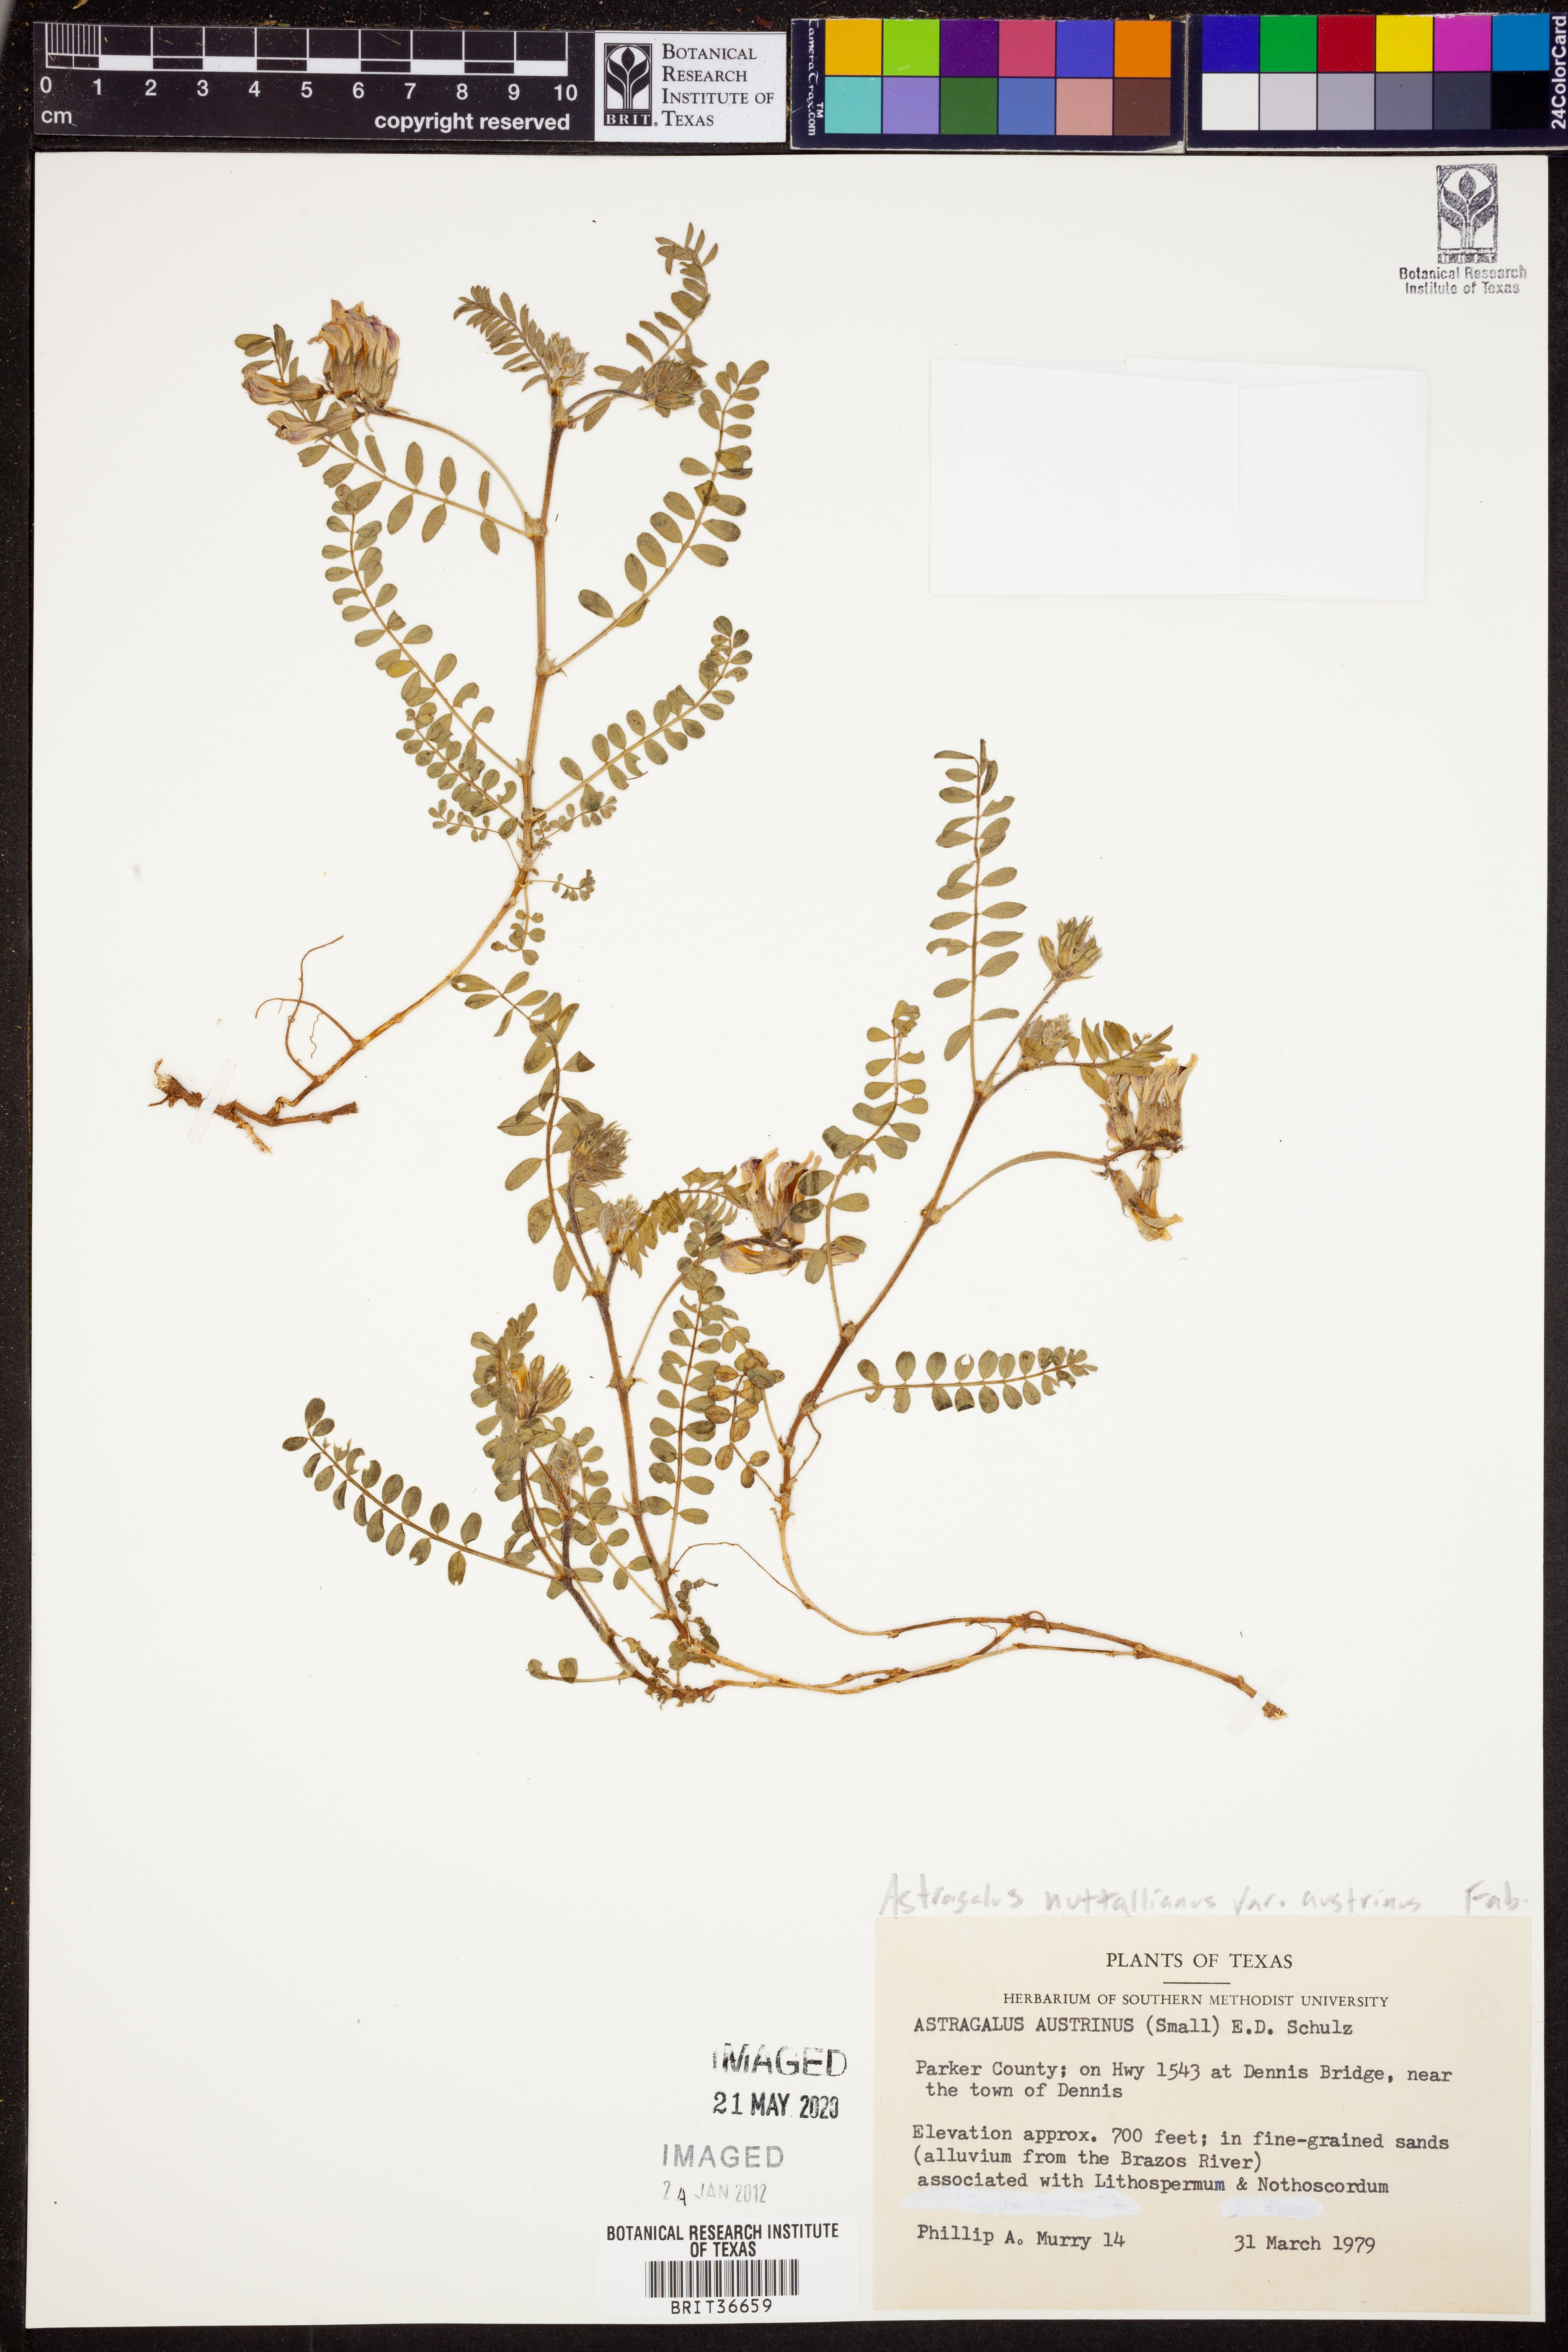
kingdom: Plantae
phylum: Tracheophyta
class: Magnoliopsida
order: Fabales
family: Fabaceae
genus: Astragalus
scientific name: Astragalus nuttallianus
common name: Smallflowered milkvetch
